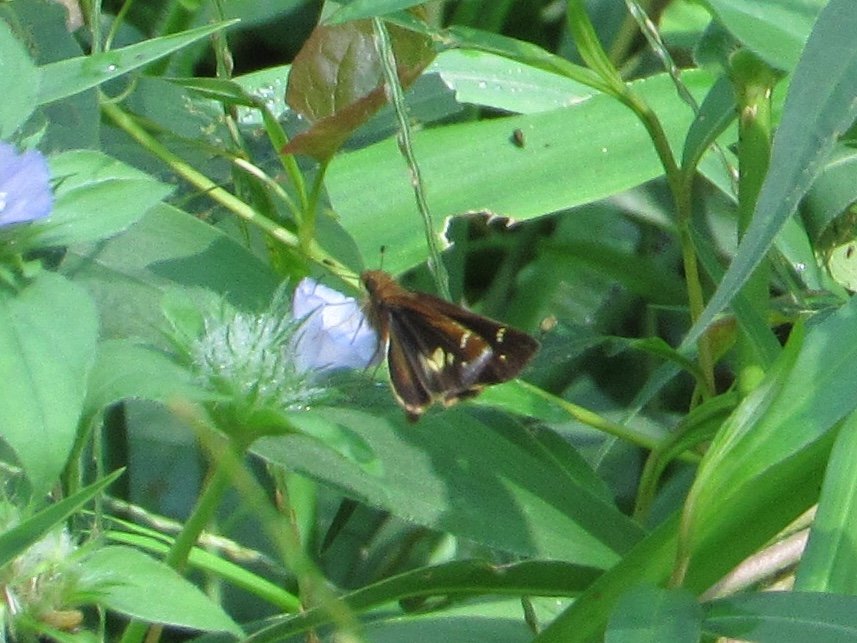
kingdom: Animalia
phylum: Arthropoda
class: Insecta
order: Lepidoptera
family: Hesperiidae
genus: Lon
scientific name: Lon zabulon
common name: Zabulon Skipper
